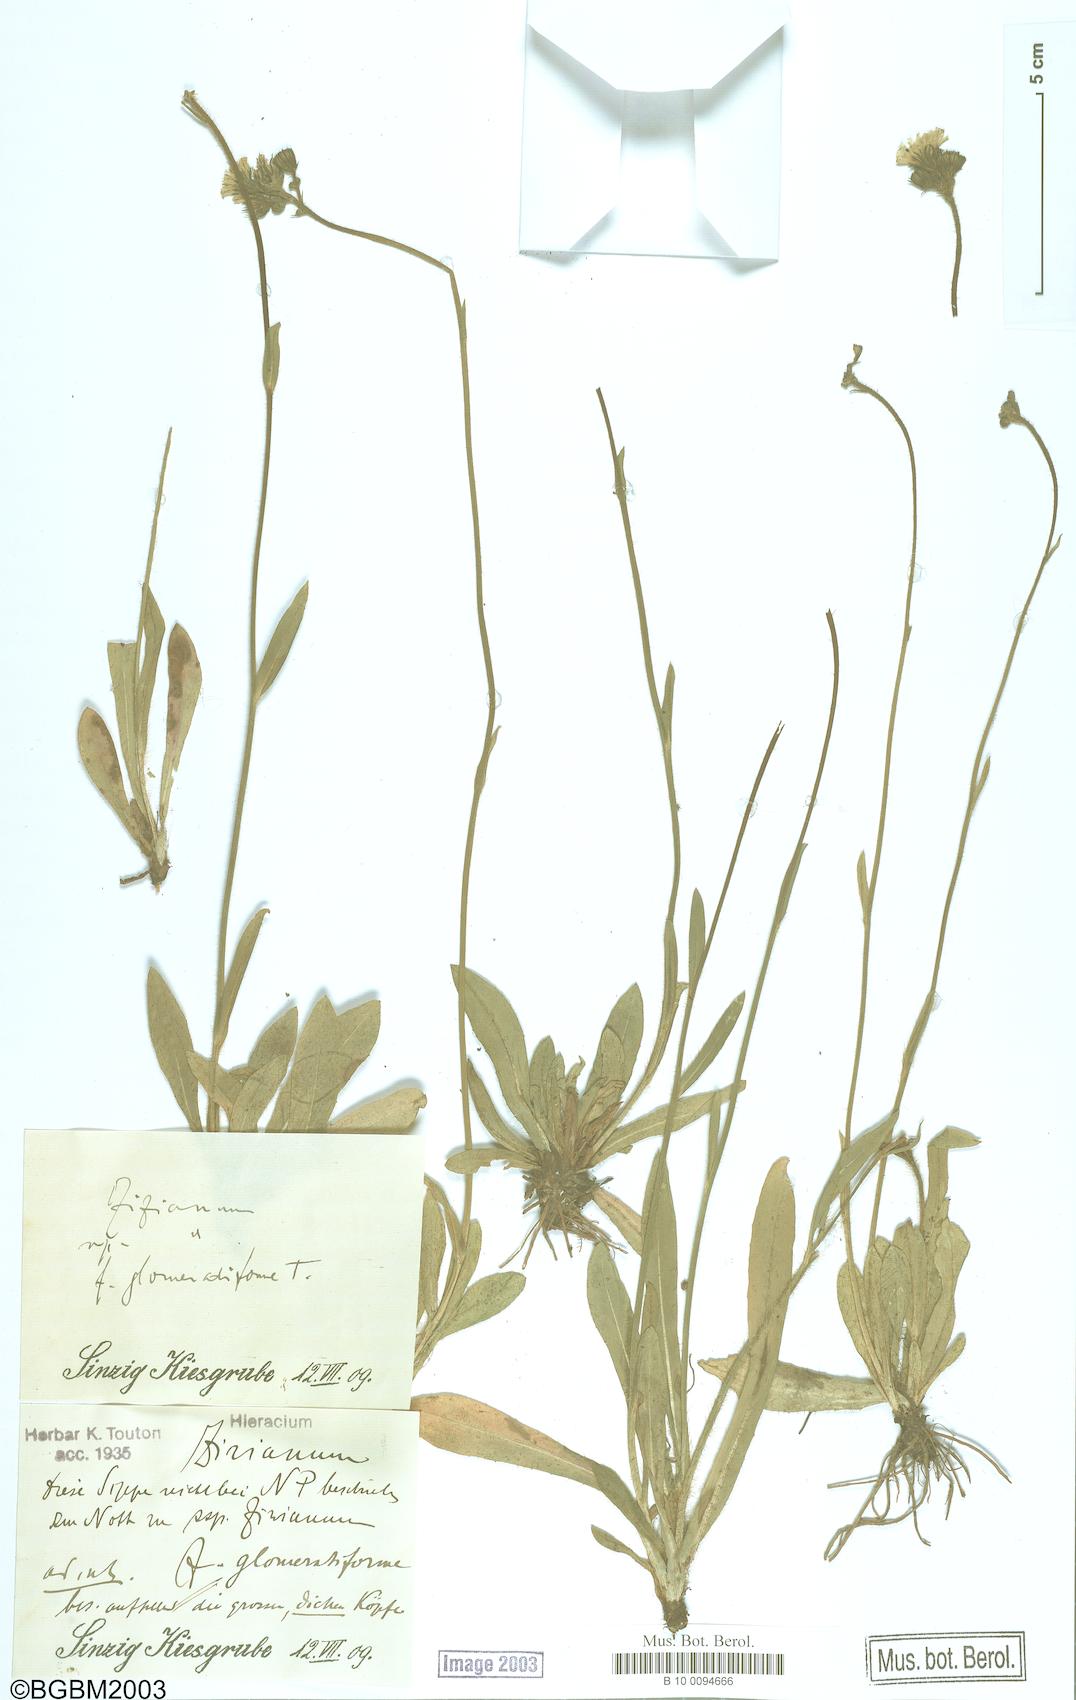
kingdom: Plantae
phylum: Tracheophyta
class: Magnoliopsida
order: Asterales
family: Asteraceae
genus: Pilosella
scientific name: Pilosella ziziana
